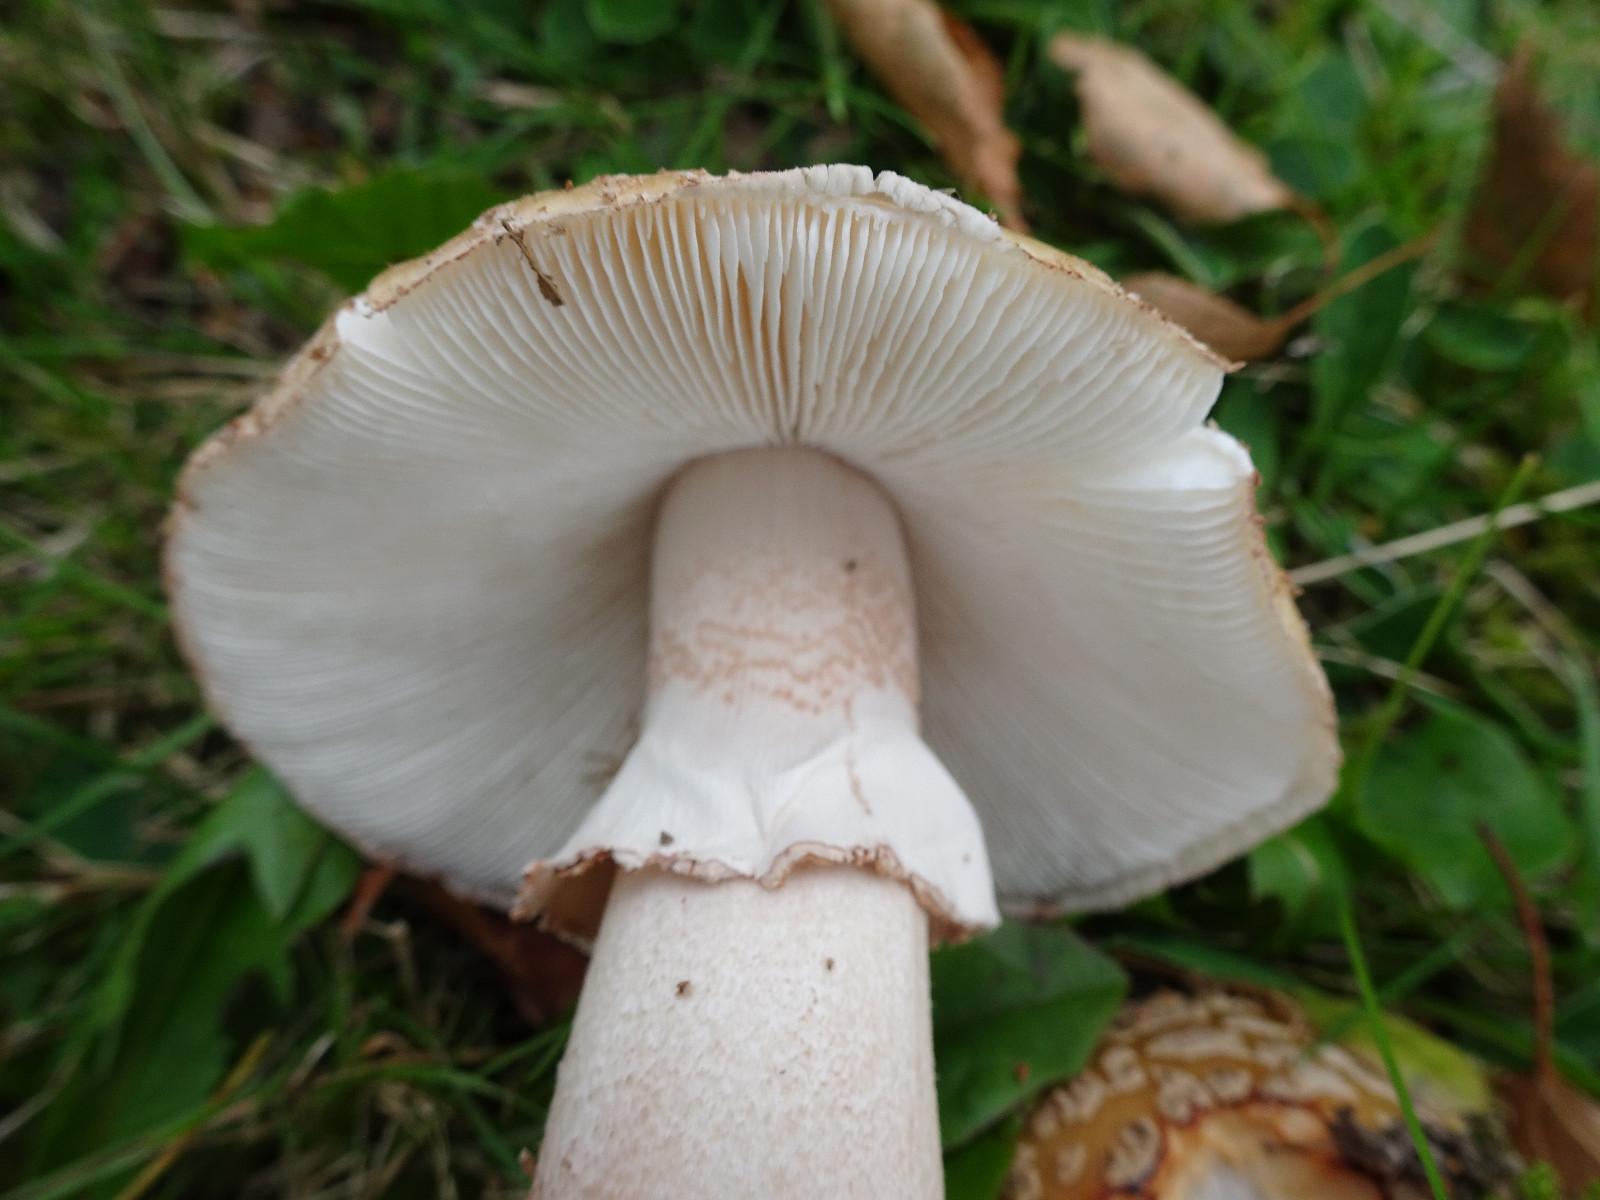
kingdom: Fungi
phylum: Basidiomycota
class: Agaricomycetes
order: Agaricales
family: Amanitaceae
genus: Amanita
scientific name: Amanita rubescens
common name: rødmende fluesvamp
